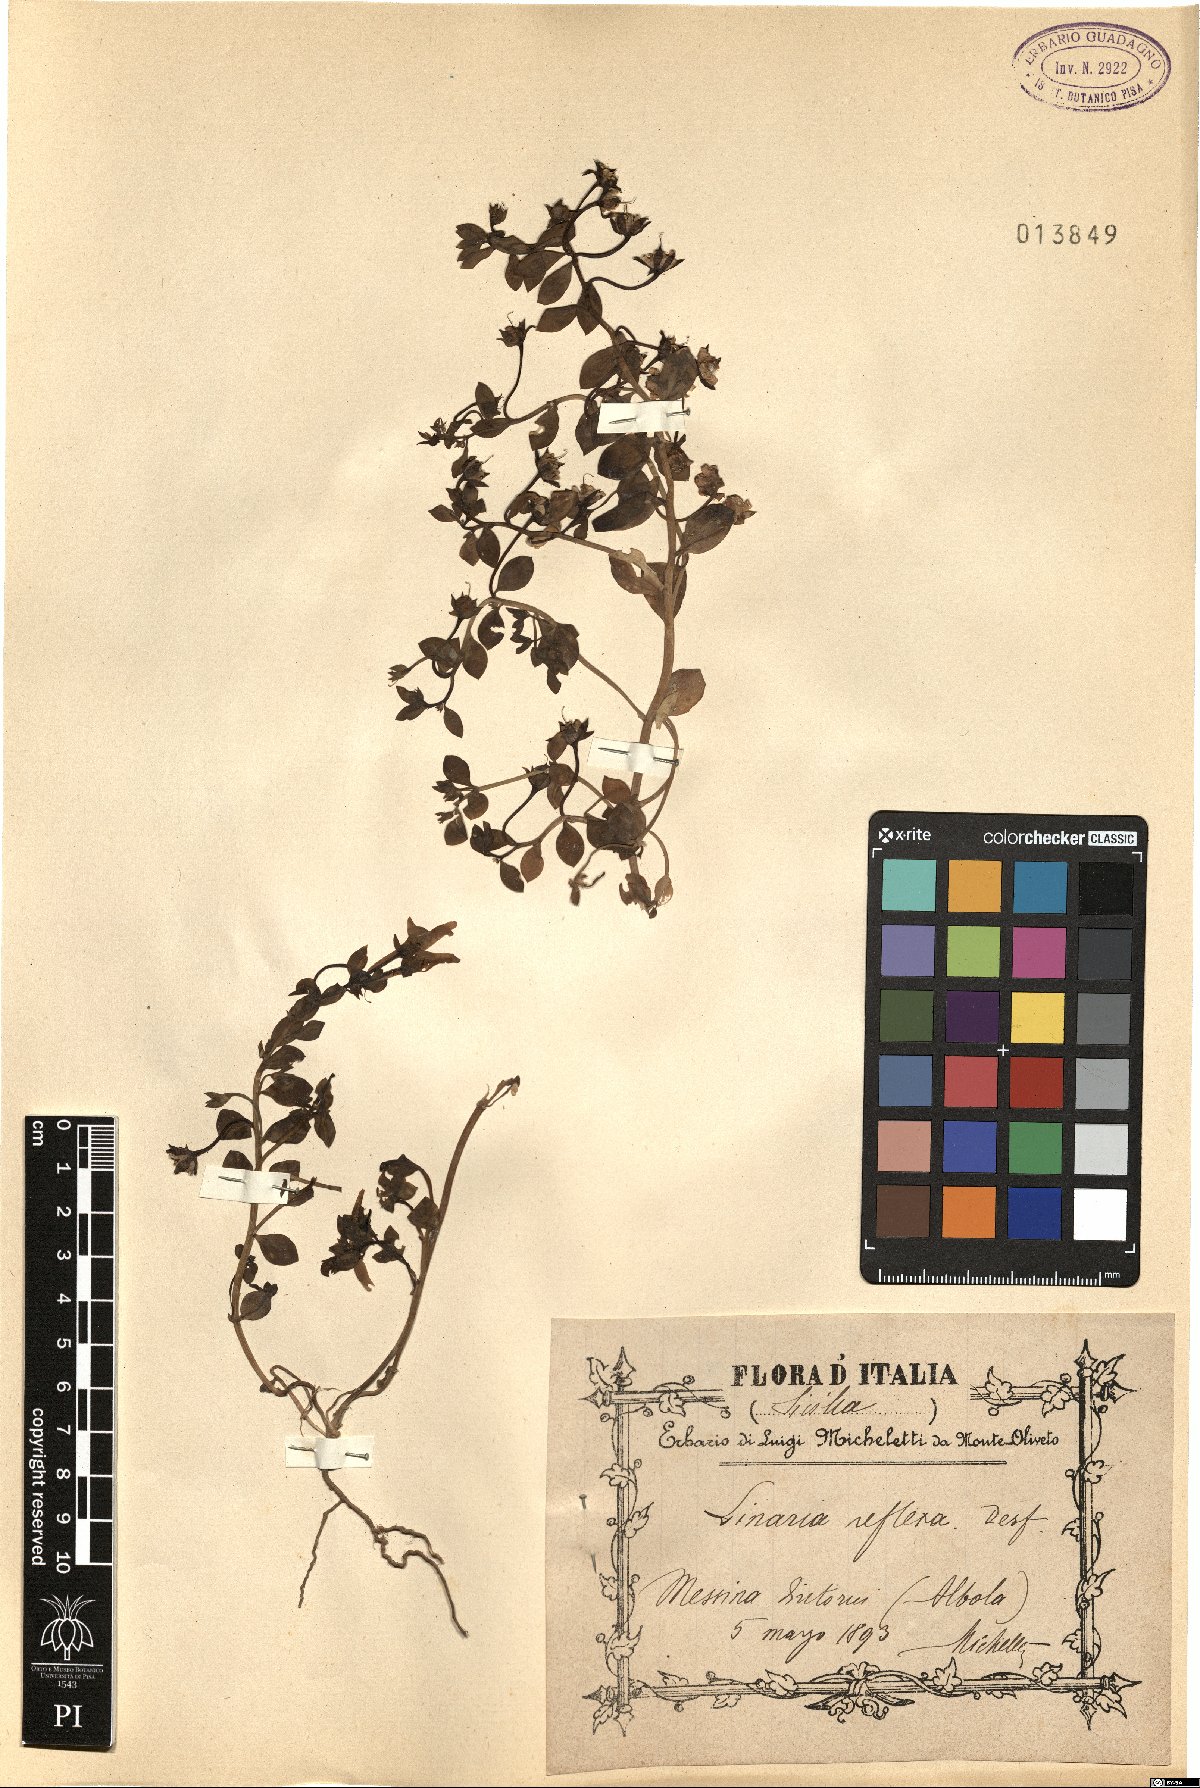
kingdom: Plantae
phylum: Tracheophyta
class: Magnoliopsida
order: Lamiales
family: Plantaginaceae
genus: Linaria
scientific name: Linaria reflexa
